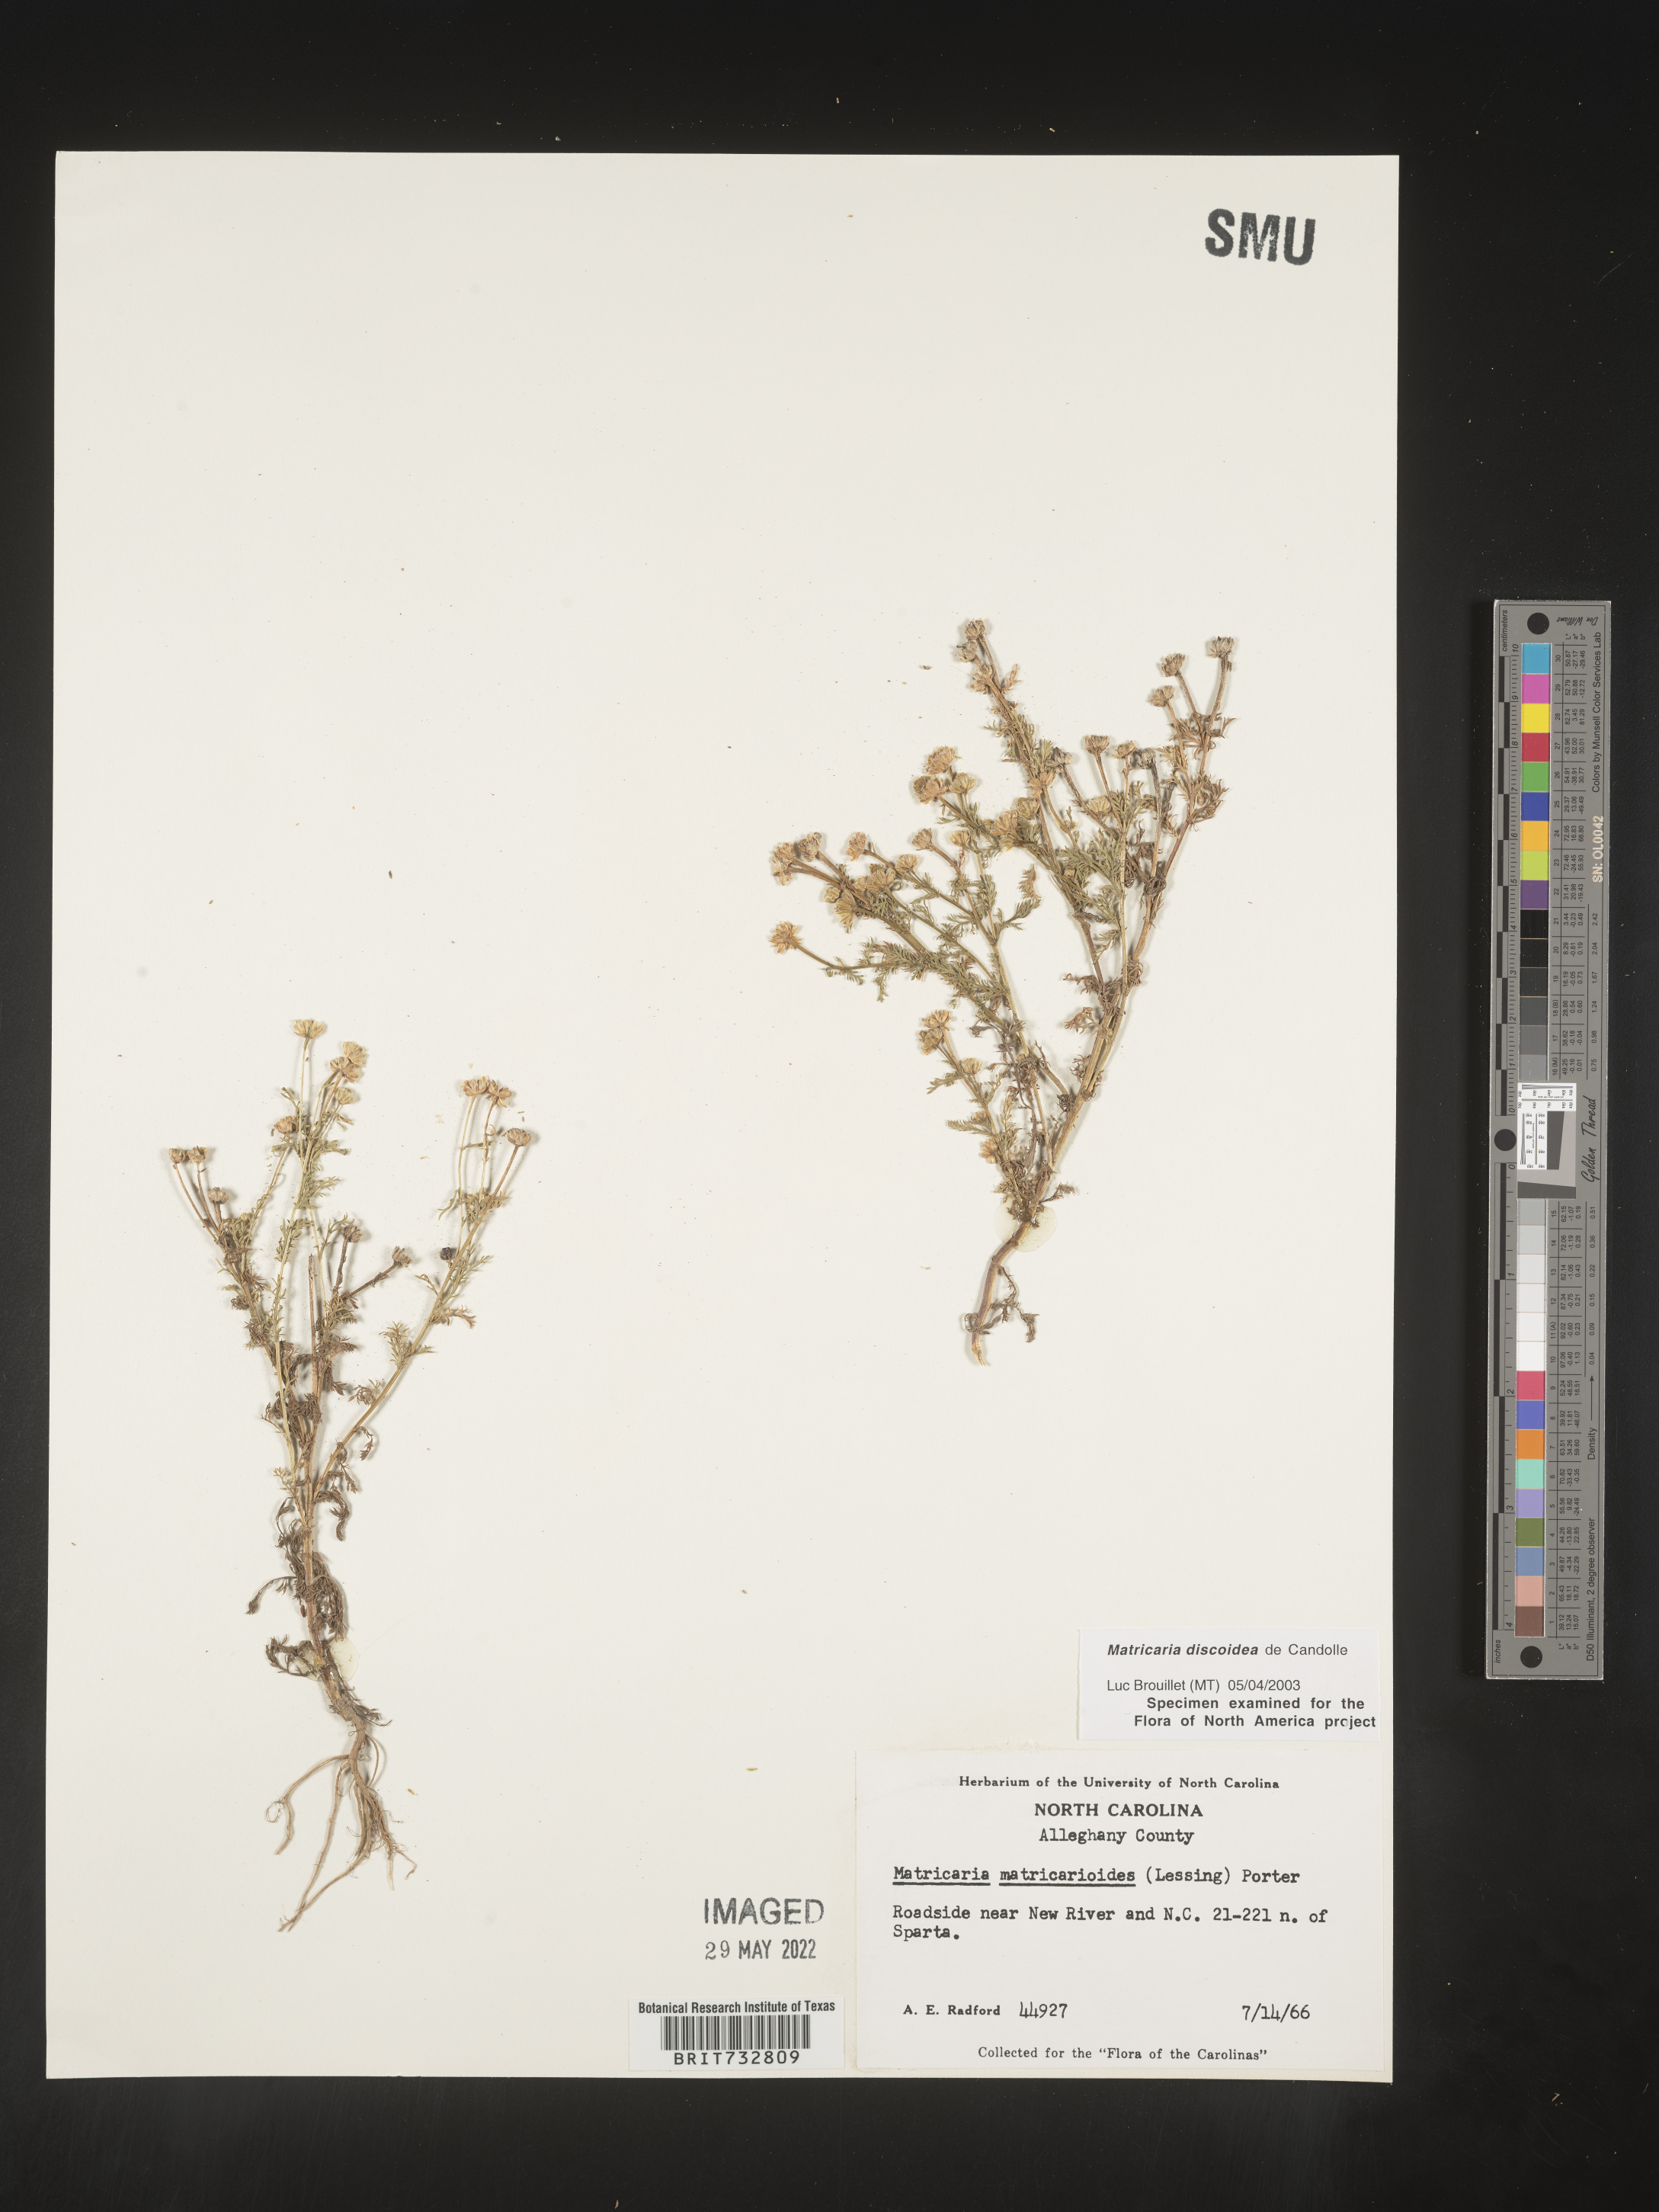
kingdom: Plantae
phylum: Tracheophyta
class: Magnoliopsida
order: Asterales
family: Asteraceae
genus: Matricaria
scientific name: Matricaria discoidea
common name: Disc mayweed
